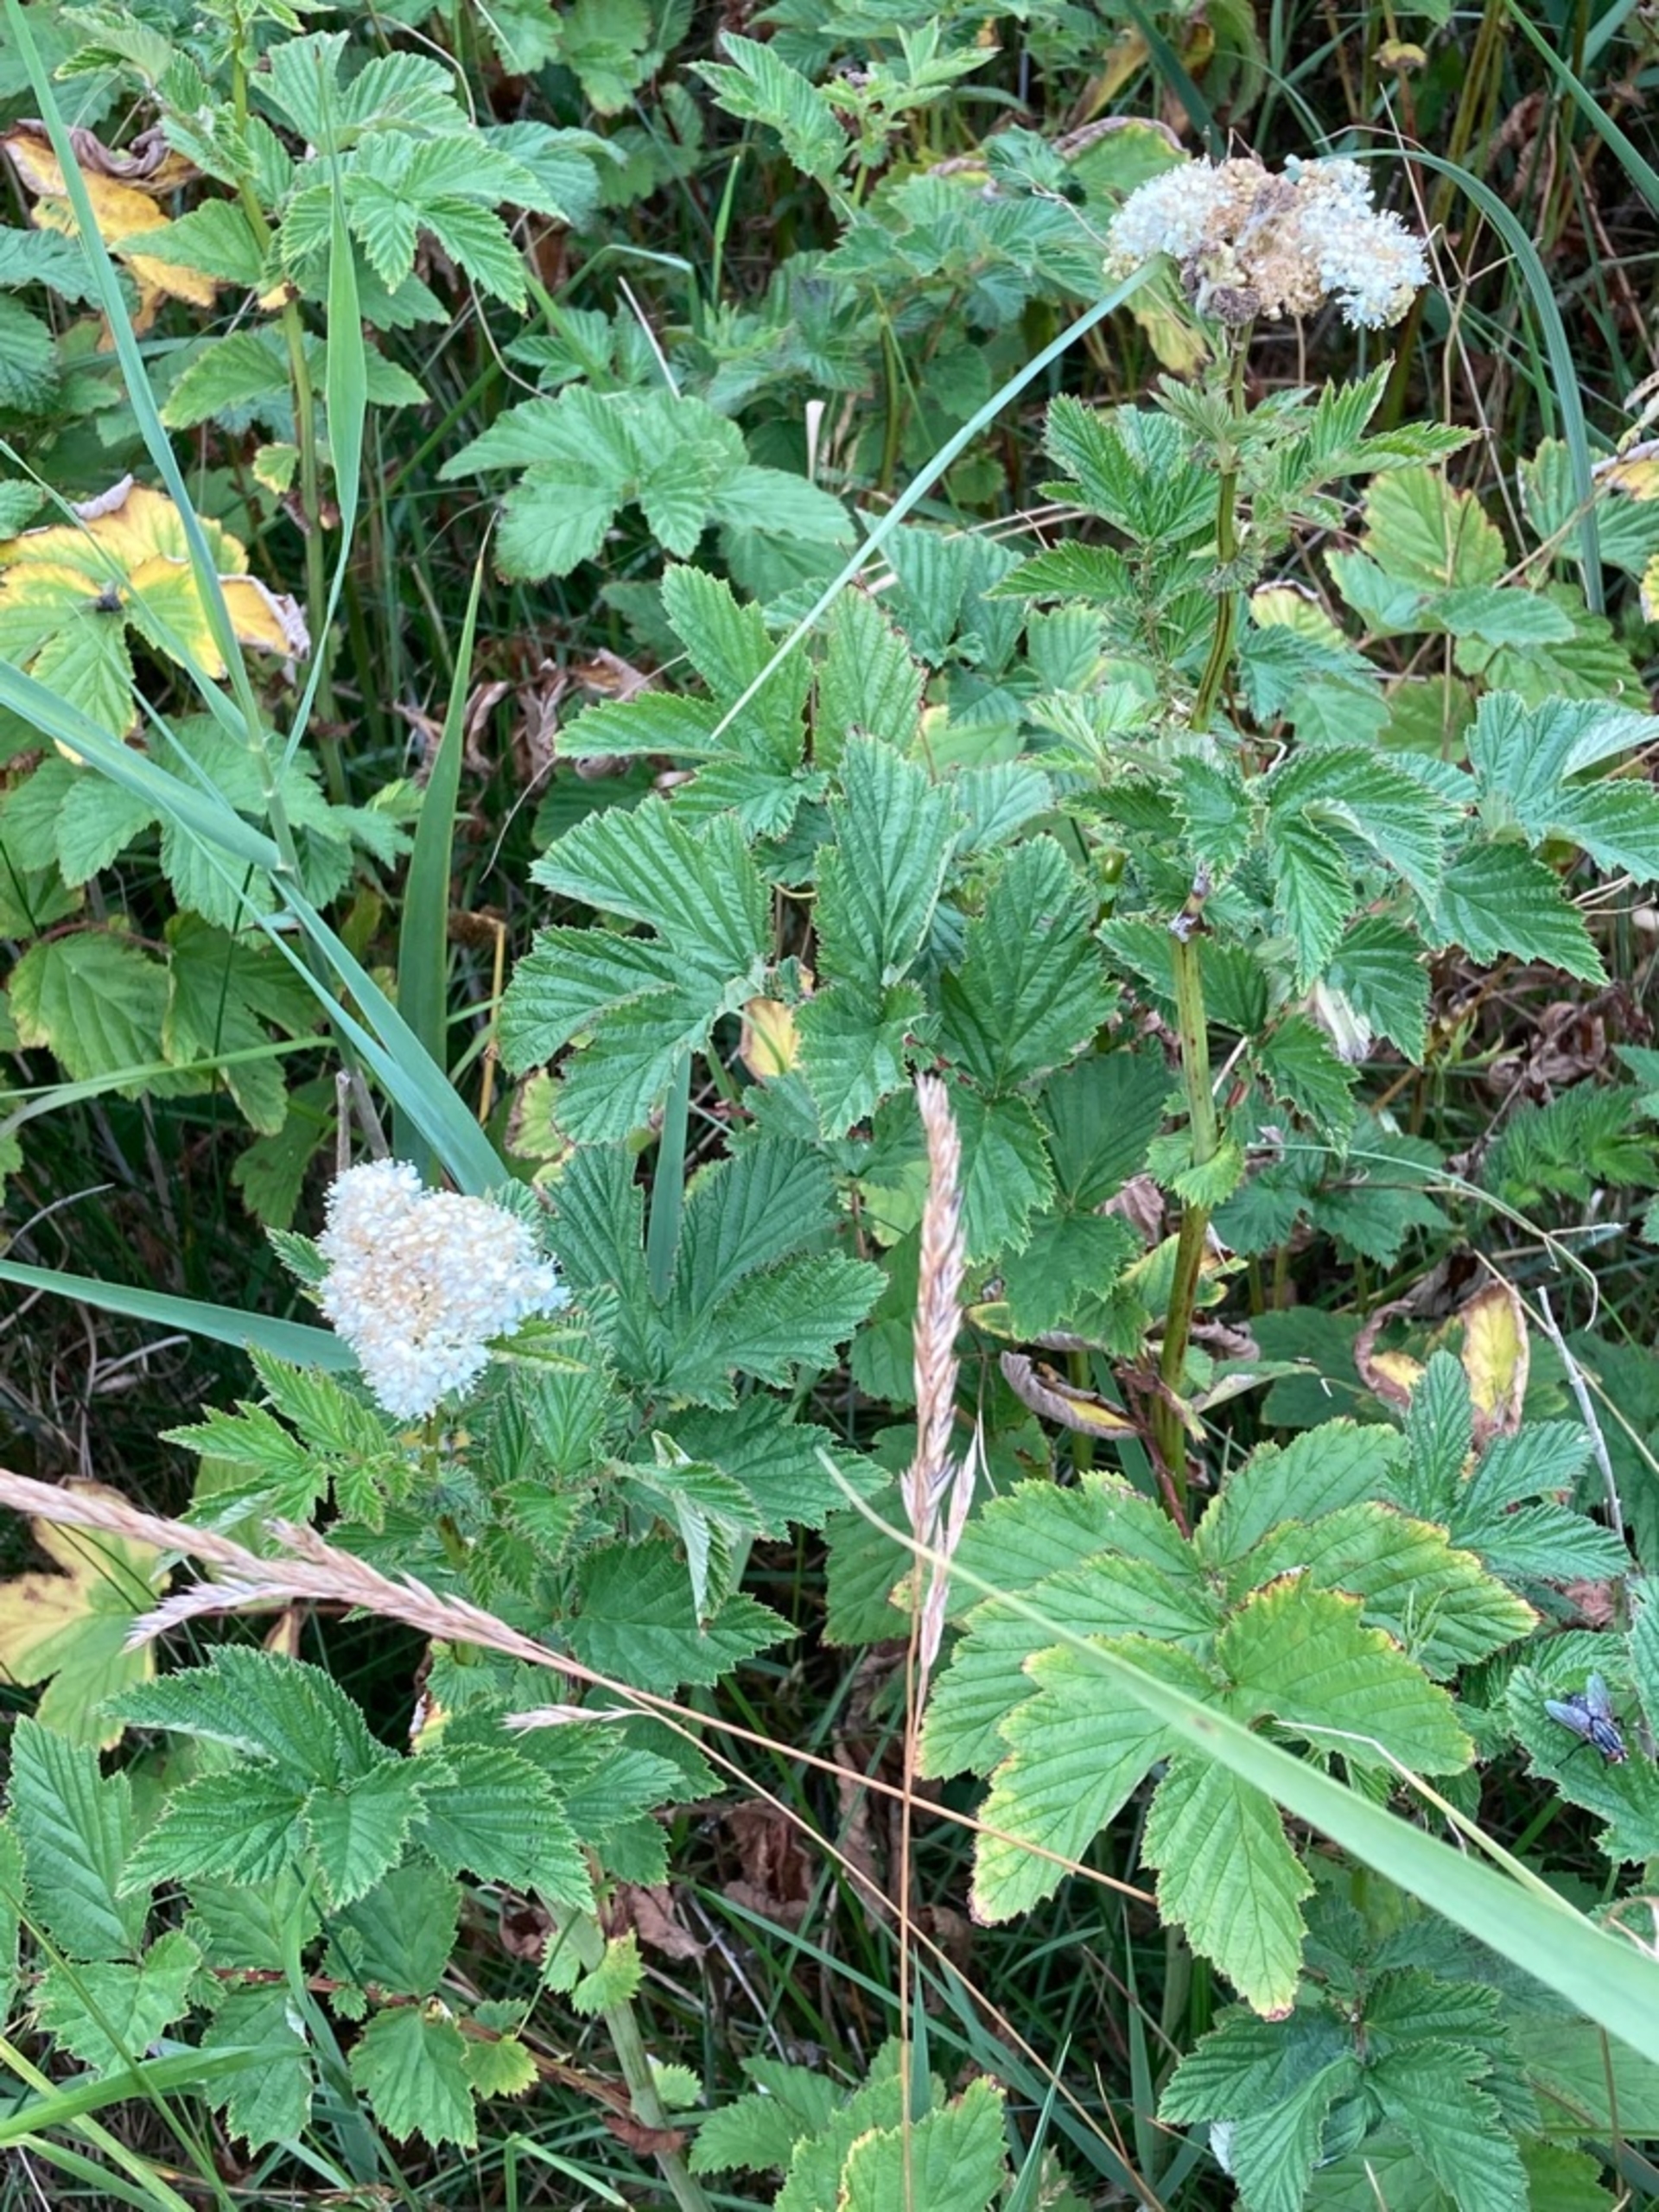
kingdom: Plantae
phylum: Tracheophyta
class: Magnoliopsida
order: Rosales
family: Rosaceae
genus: Filipendula
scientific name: Filipendula ulmaria
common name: Almindelig mjødurt
